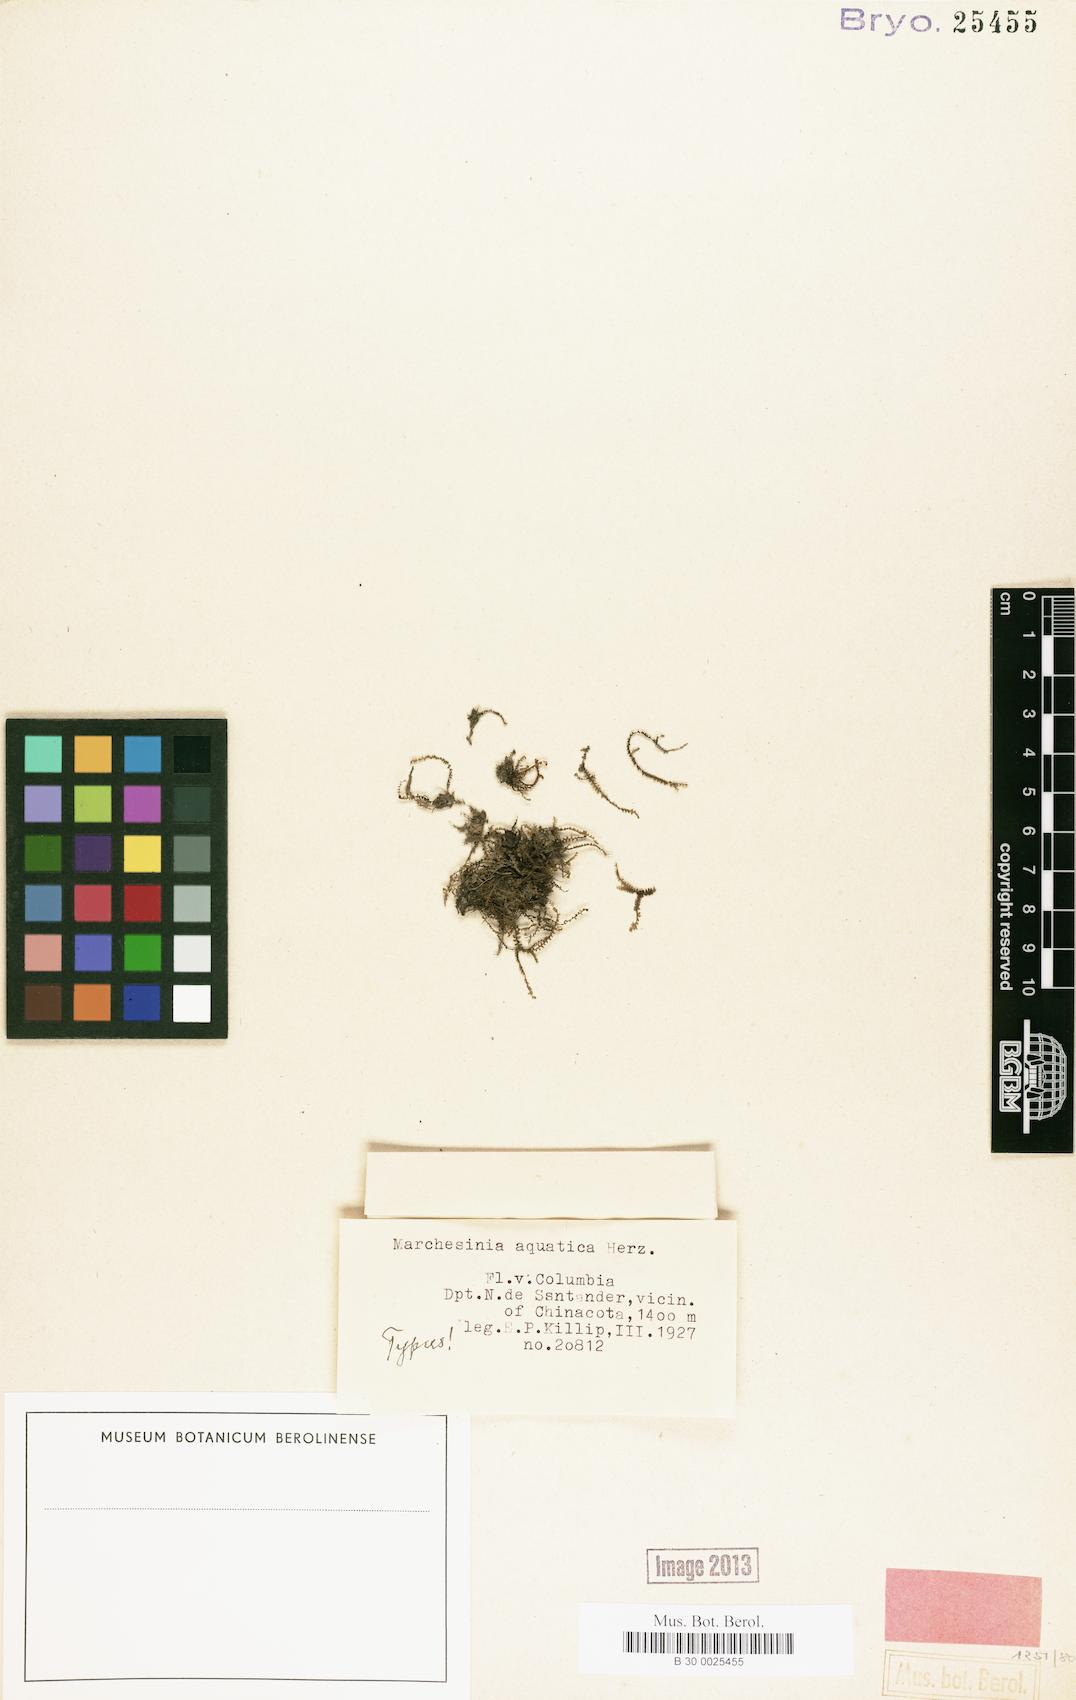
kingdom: Plantae
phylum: Marchantiophyta
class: Jungermanniopsida
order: Porellales
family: Lejeuneaceae
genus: Marchesinia
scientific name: Marchesinia bongardiana
